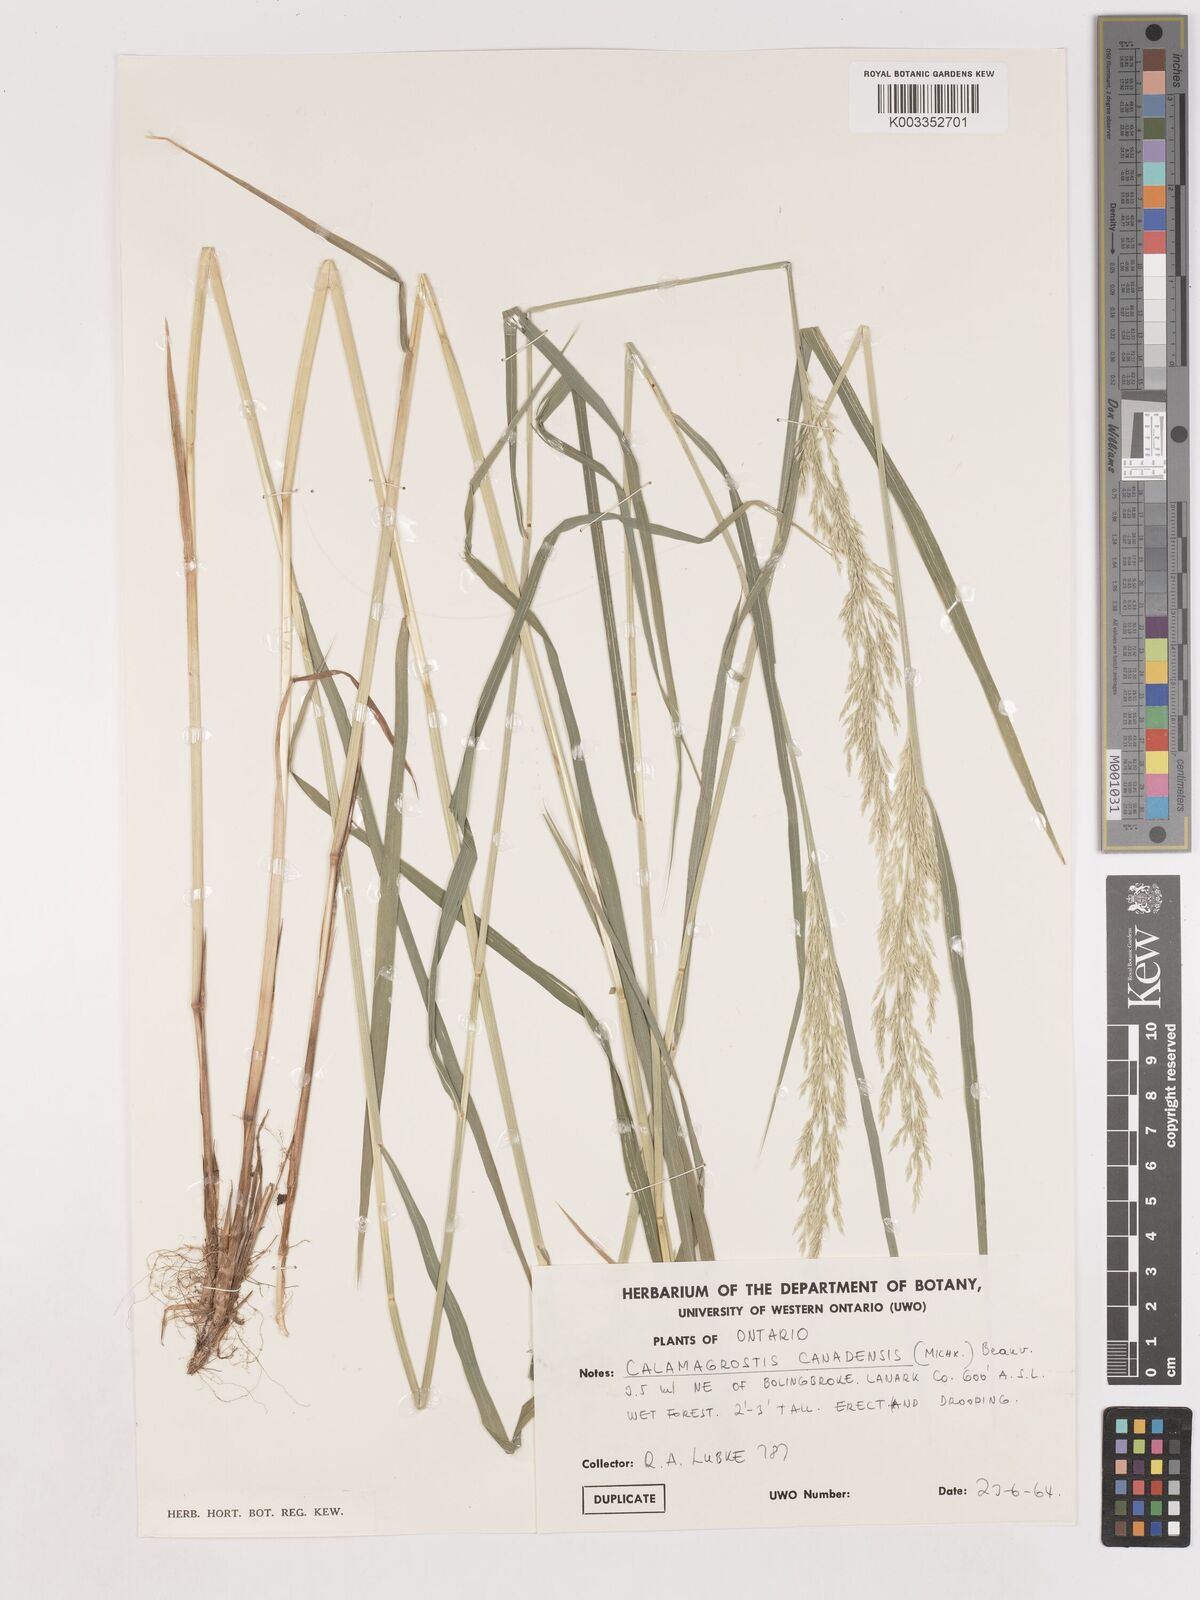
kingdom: Plantae
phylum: Tracheophyta
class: Liliopsida
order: Poales
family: Poaceae
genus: Calamagrostis
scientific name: Calamagrostis canadensis
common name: Canada bluejoint
